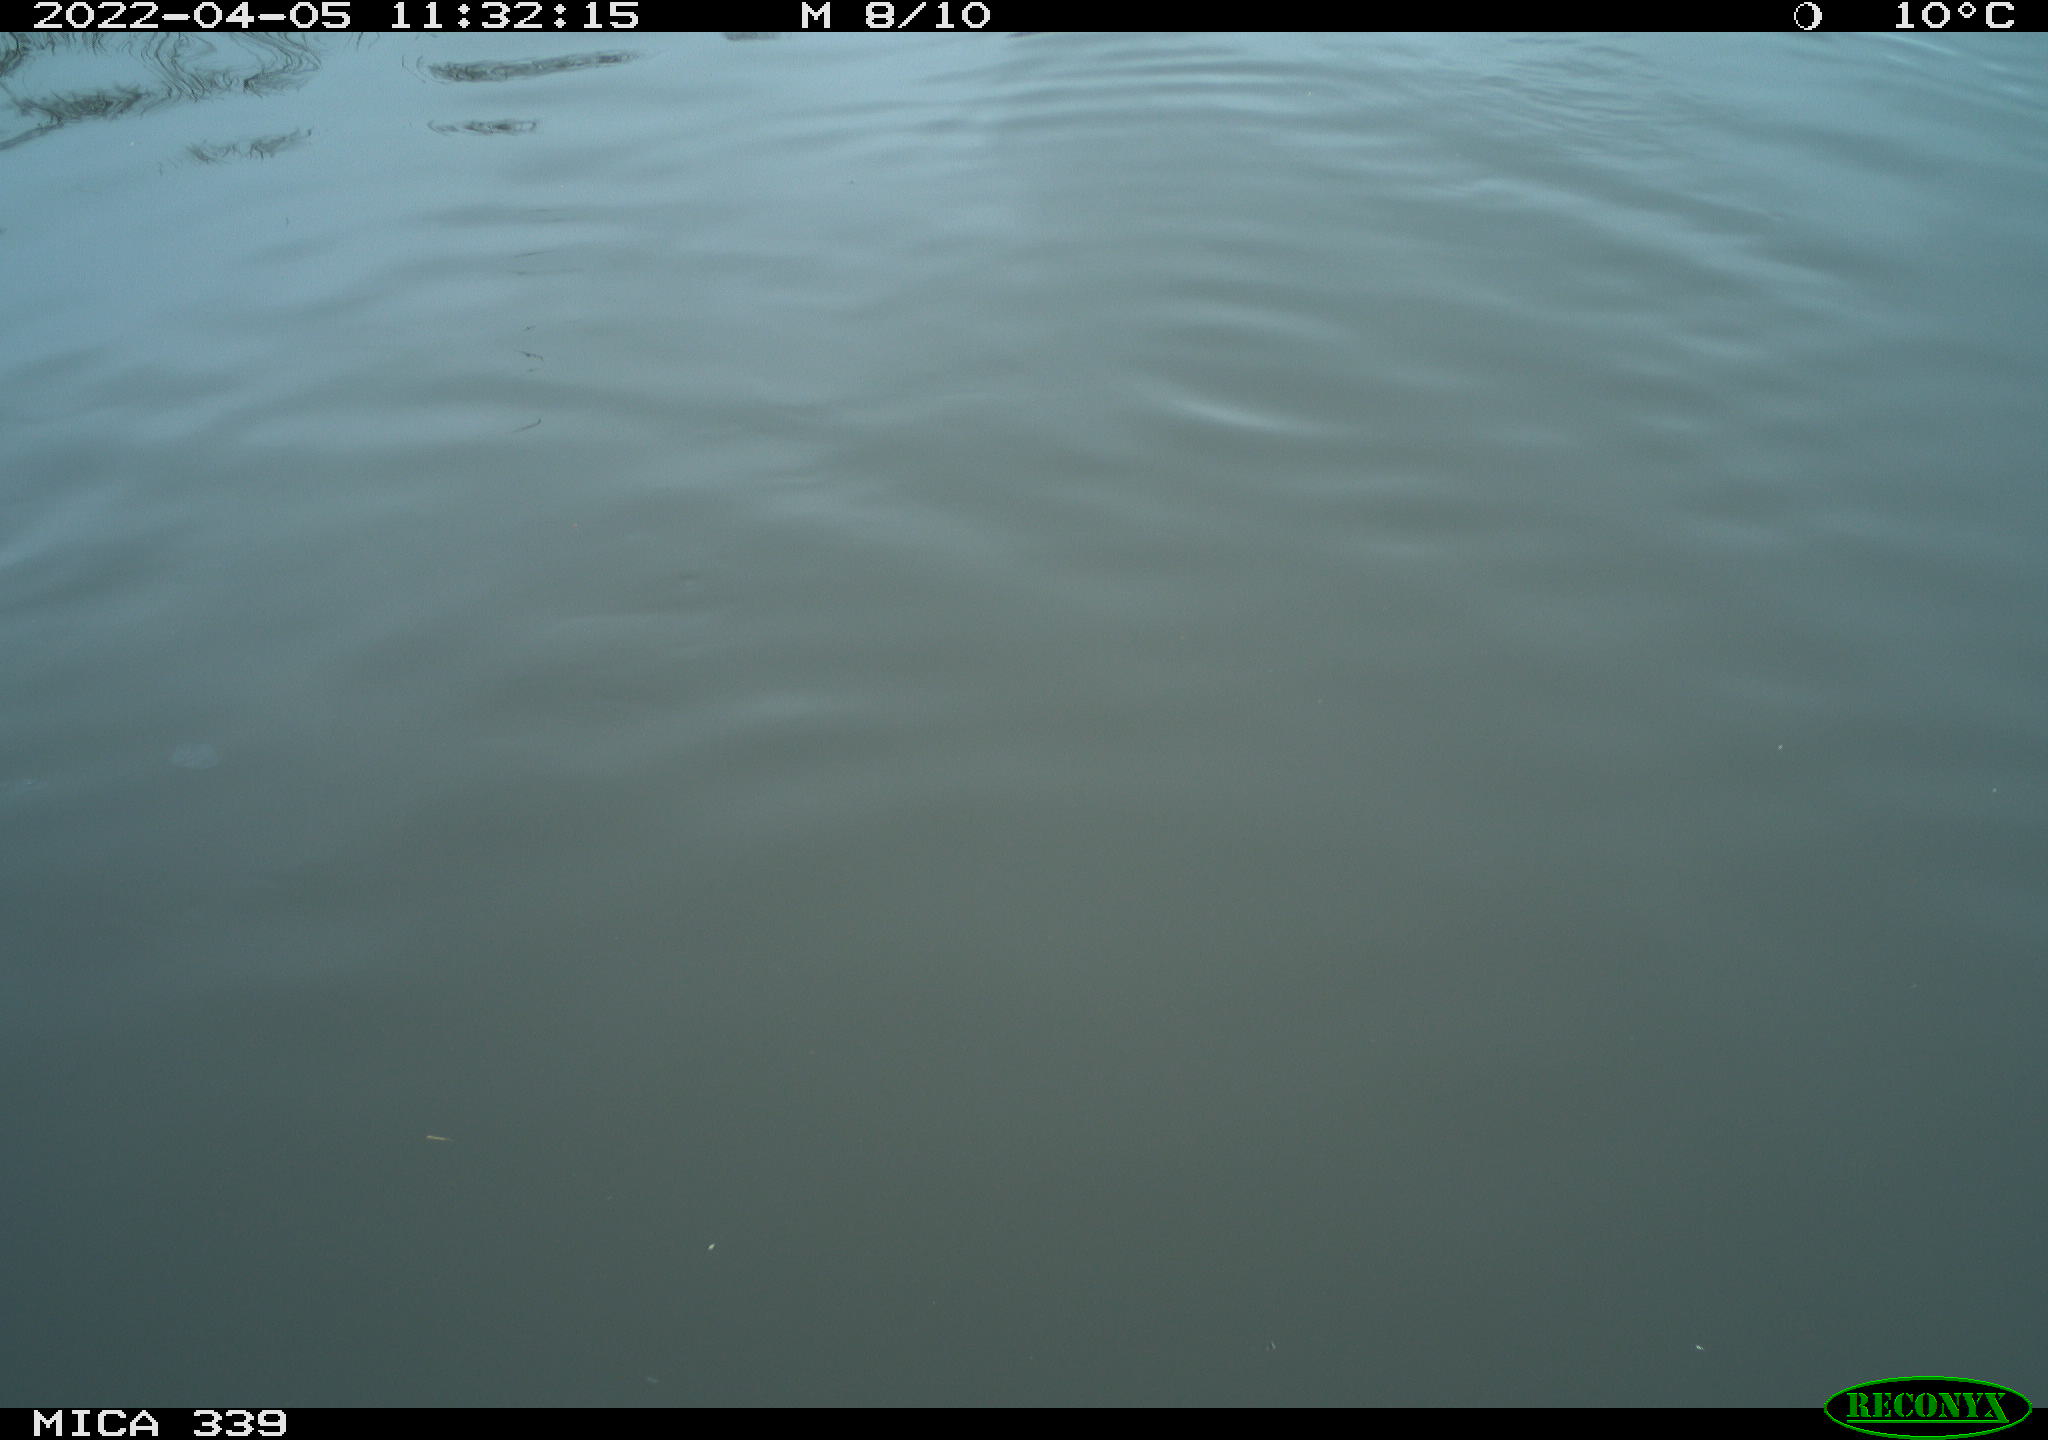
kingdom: Animalia
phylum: Chordata
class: Aves
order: Anseriformes
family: Anatidae
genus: Anas
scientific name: Anas platyrhynchos
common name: Mallard
